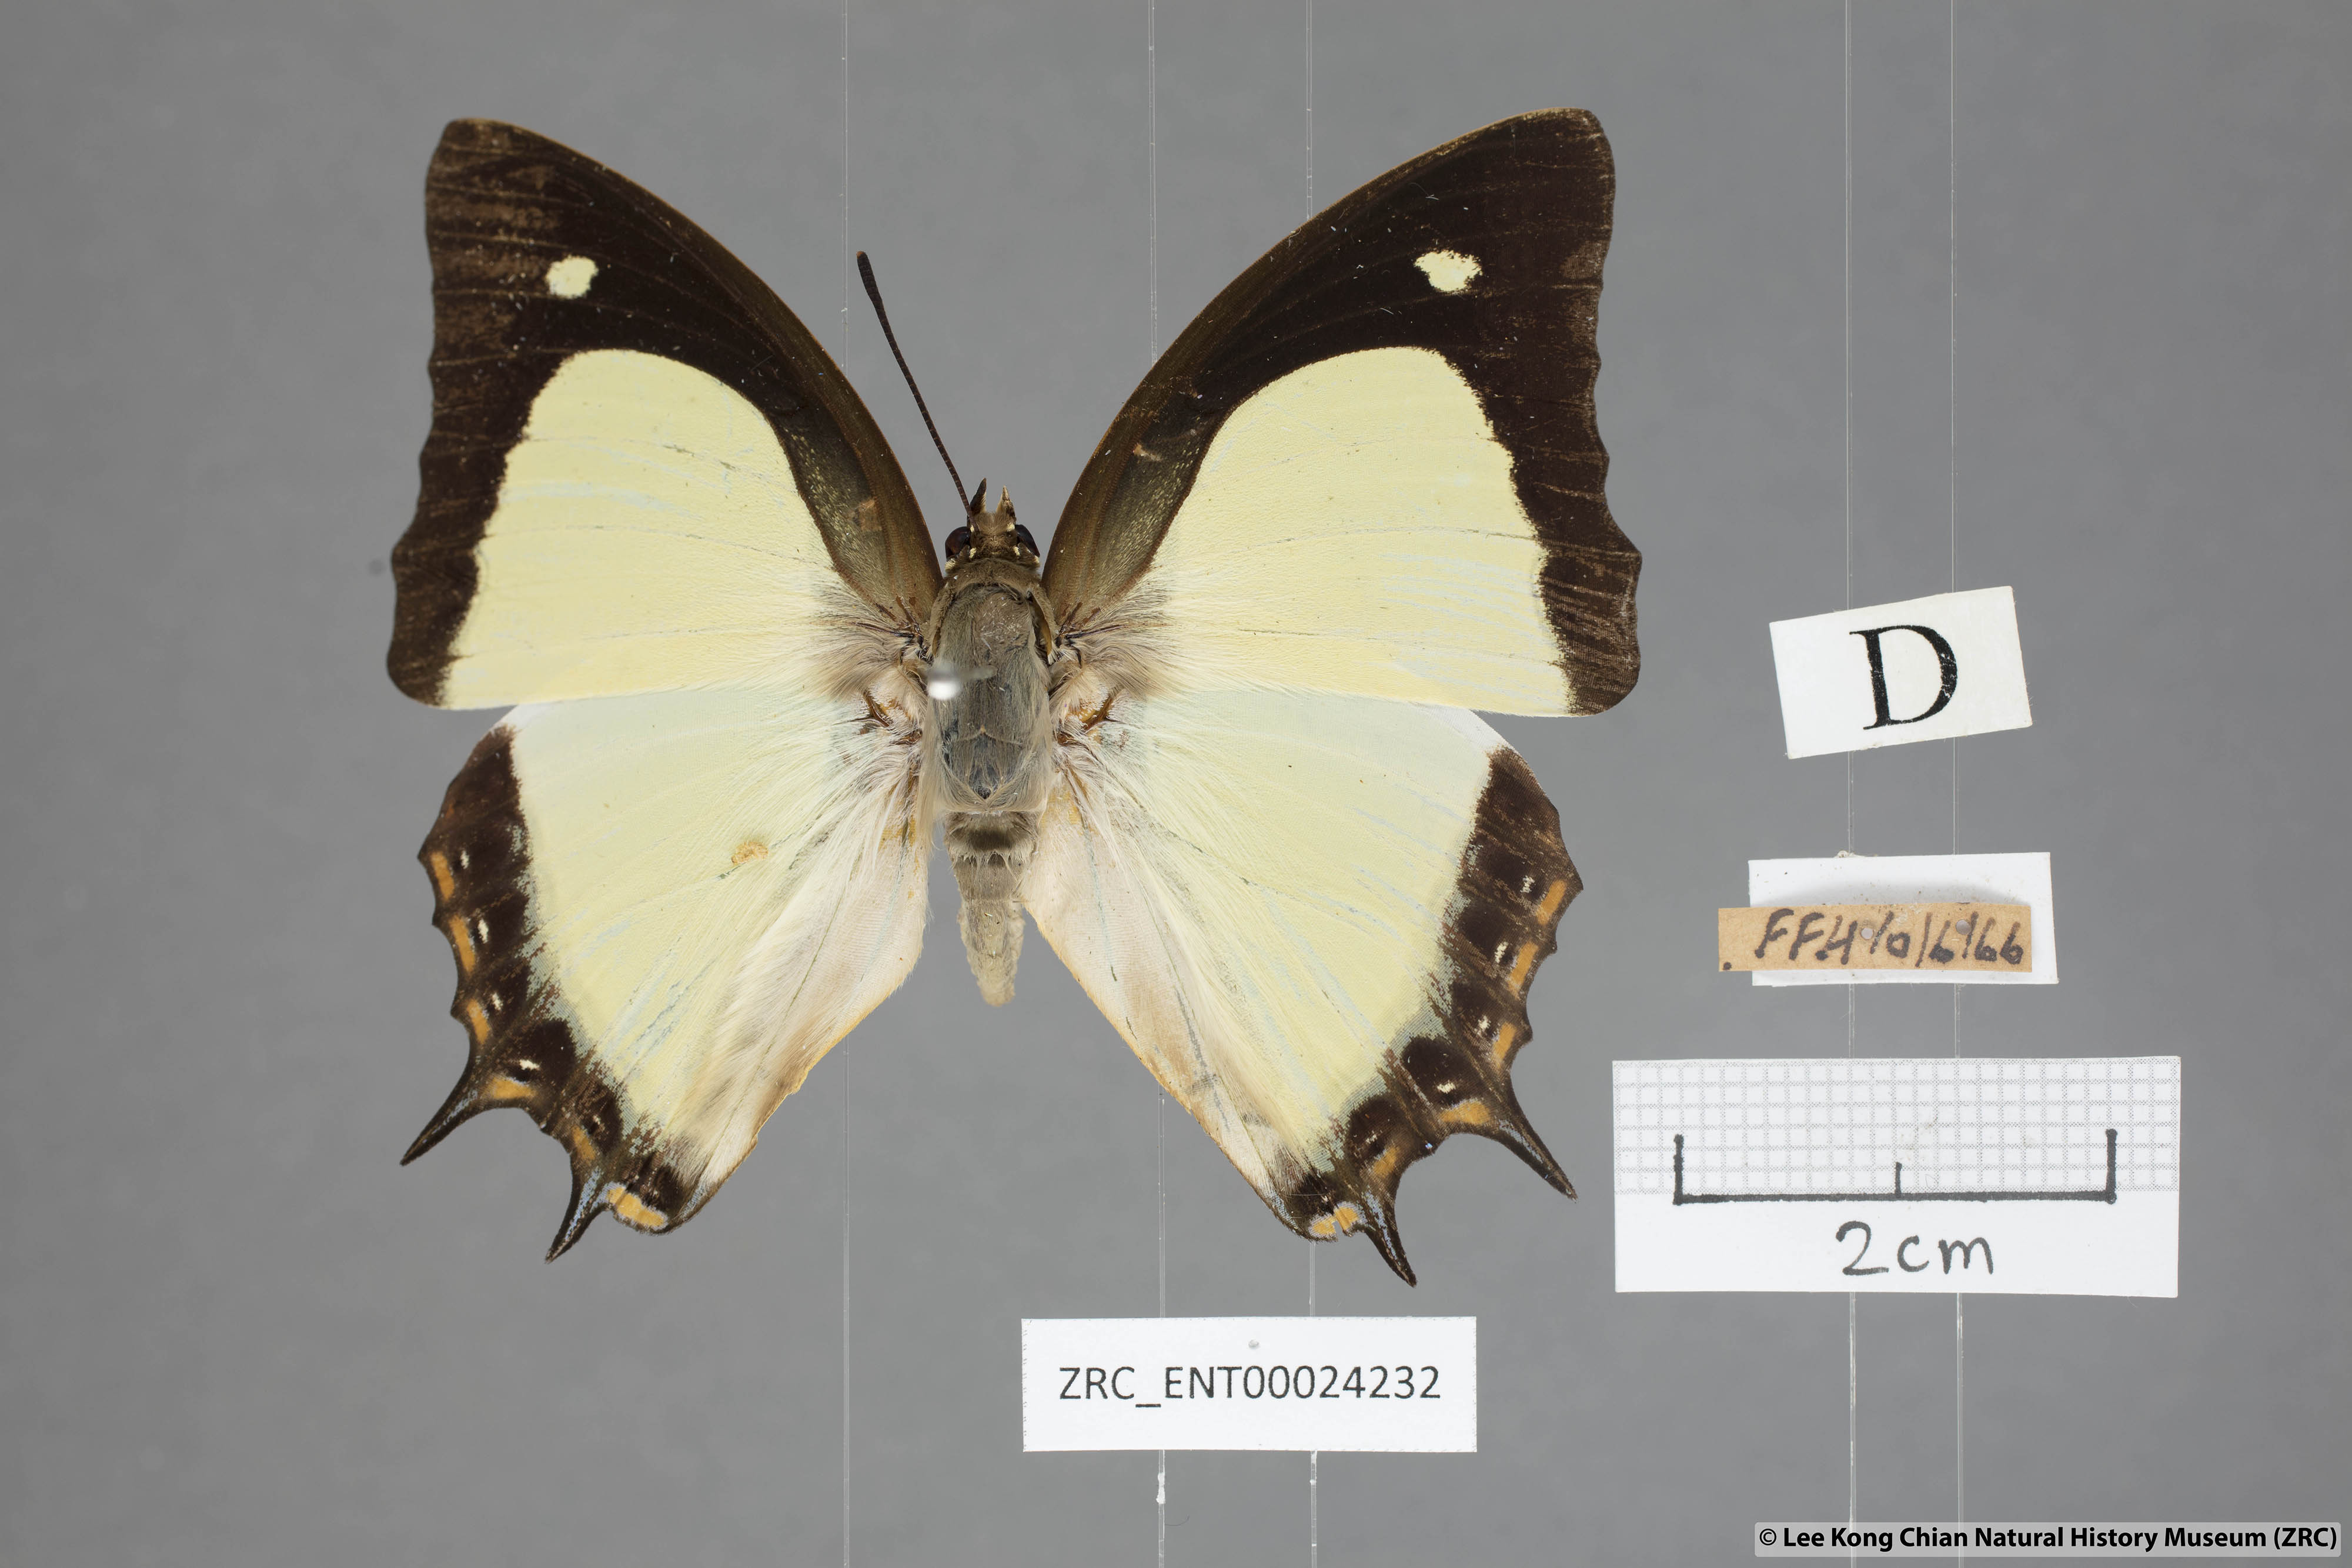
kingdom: Animalia
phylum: Arthropoda
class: Insecta
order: Lepidoptera
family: Nymphalidae
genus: Polyura
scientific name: Polyura jalysus
